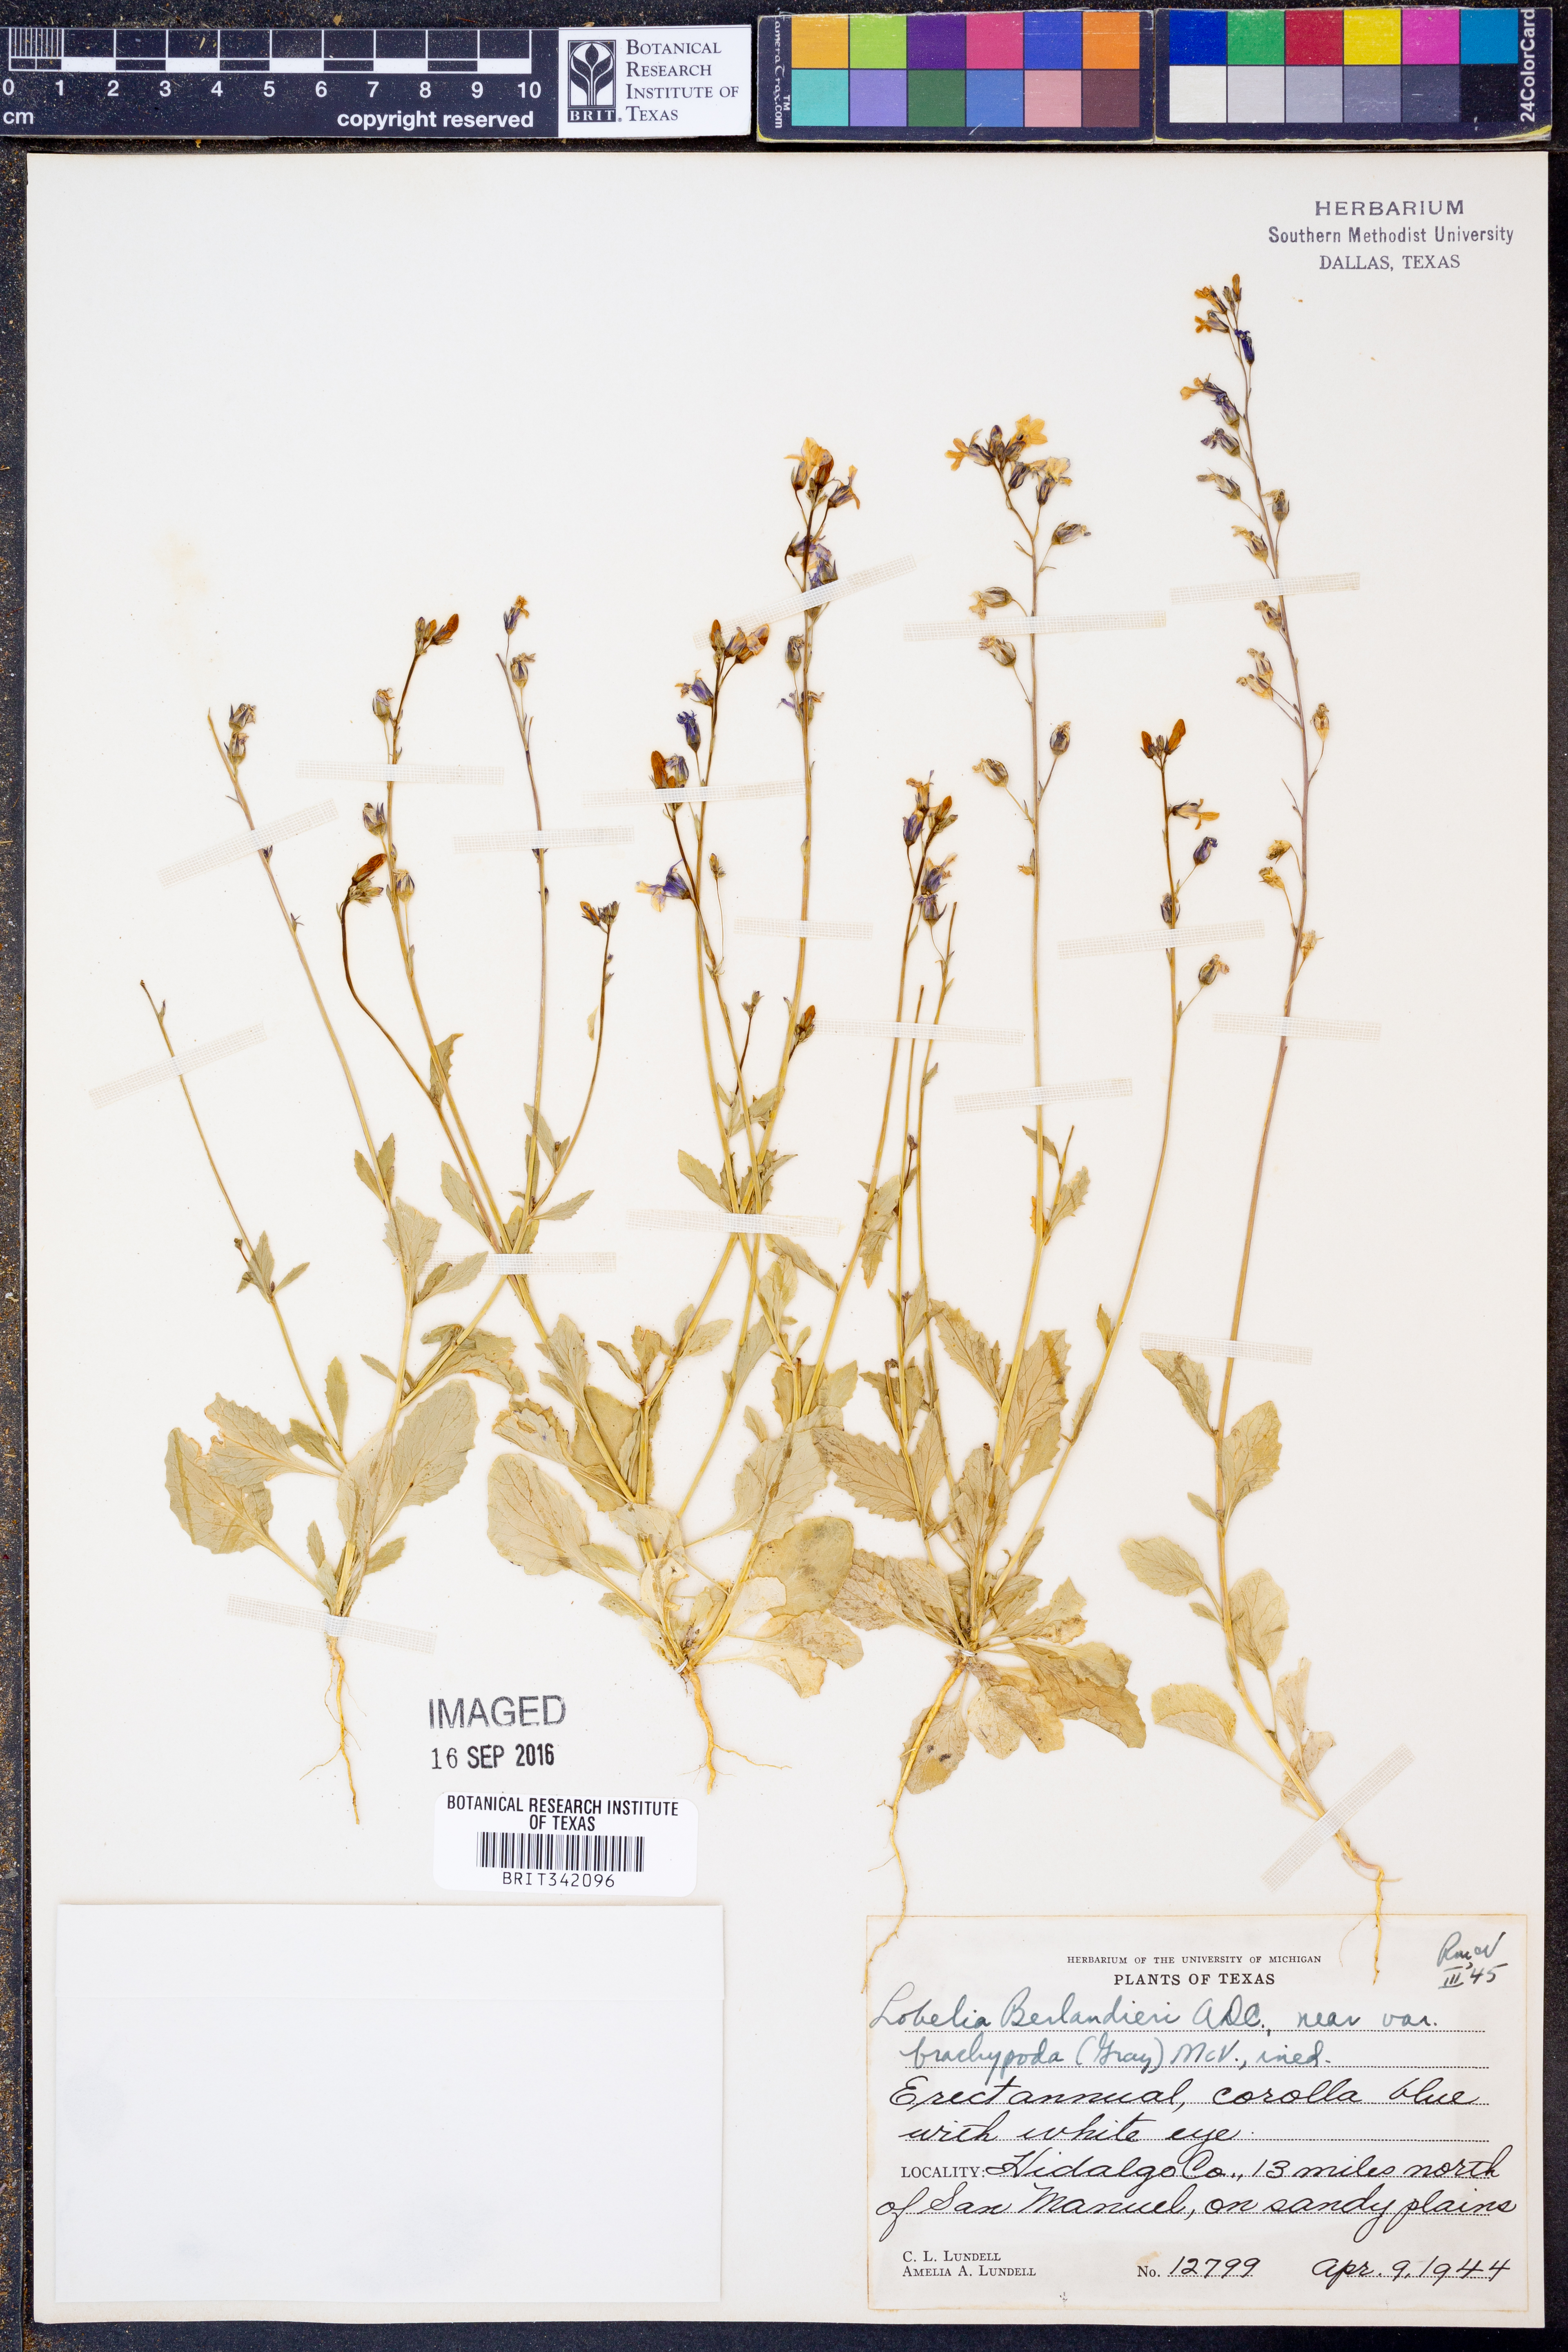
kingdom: Plantae
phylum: Tracheophyta
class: Magnoliopsida
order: Asterales
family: Campanulaceae
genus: Lobelia
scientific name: Lobelia berlandieri
